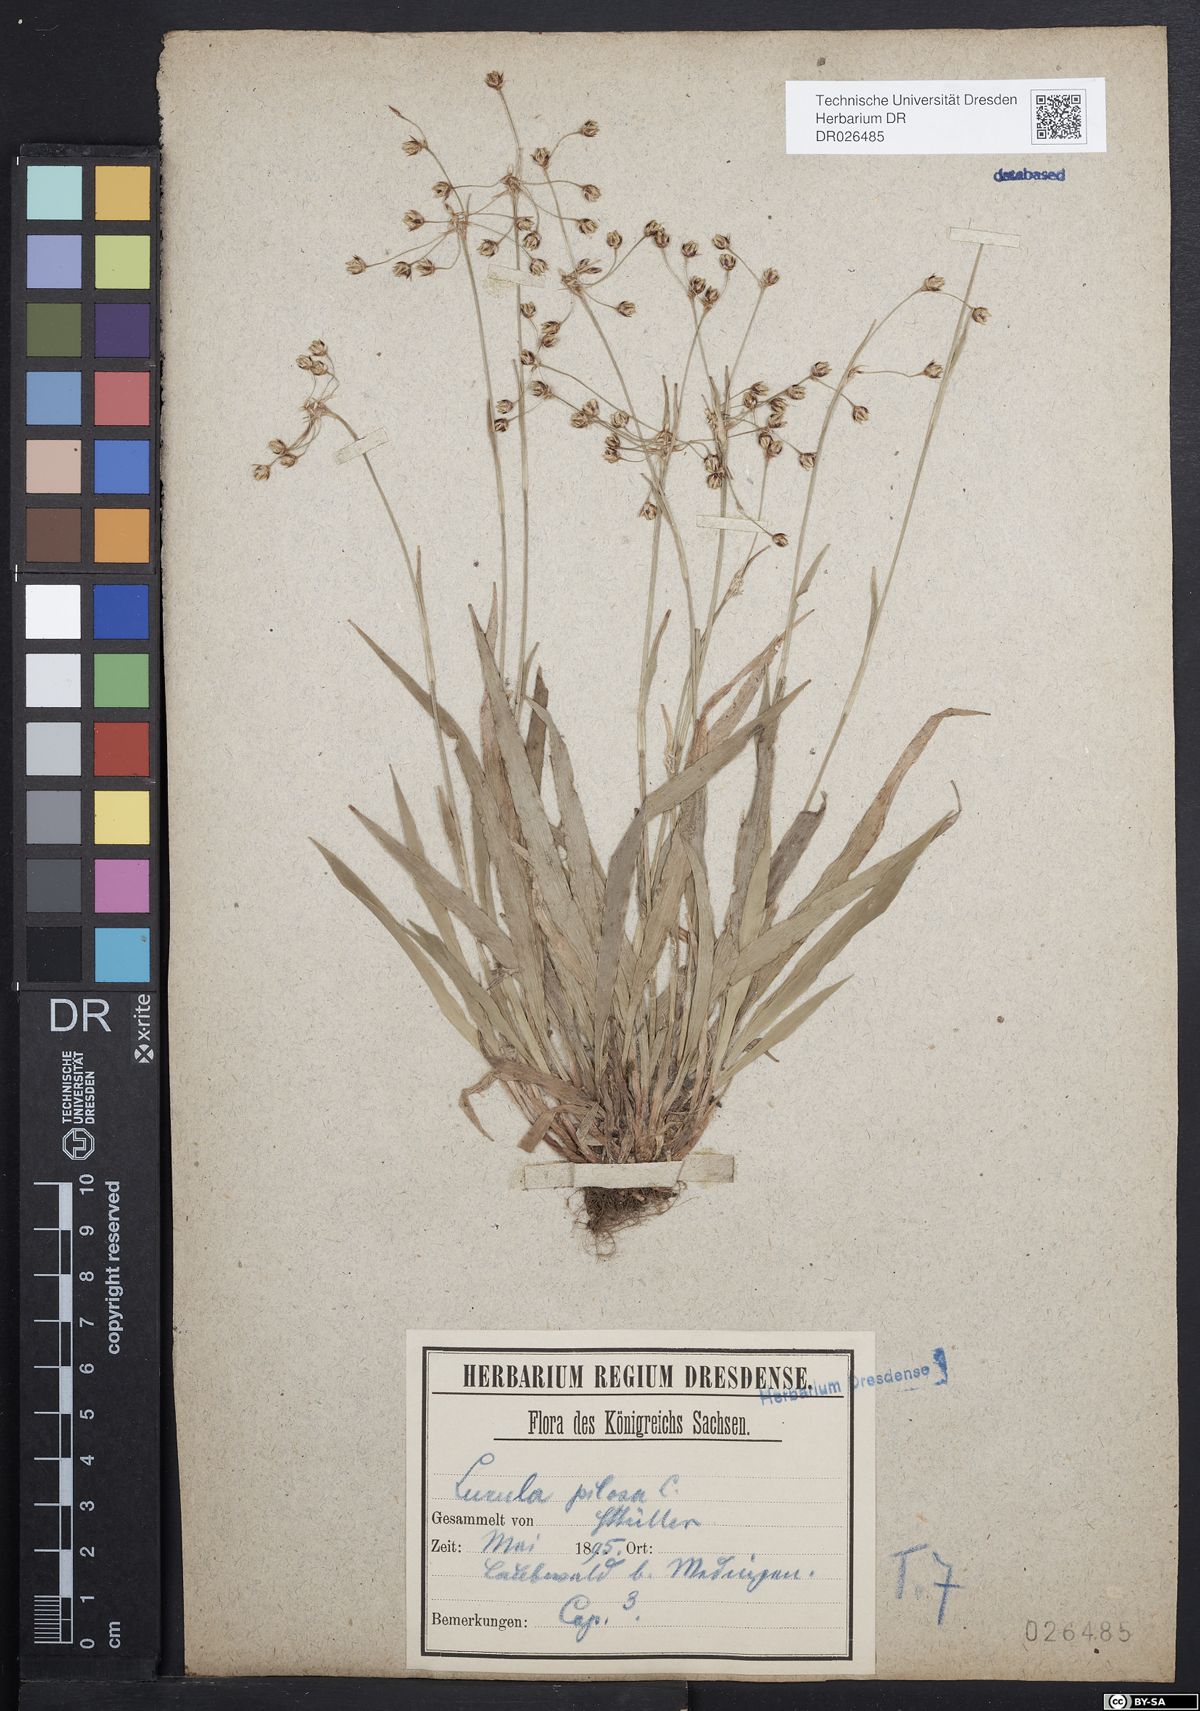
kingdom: Plantae
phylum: Tracheophyta
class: Liliopsida
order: Poales
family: Juncaceae
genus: Luzula
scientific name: Luzula pilosa
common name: Hairy wood-rush
